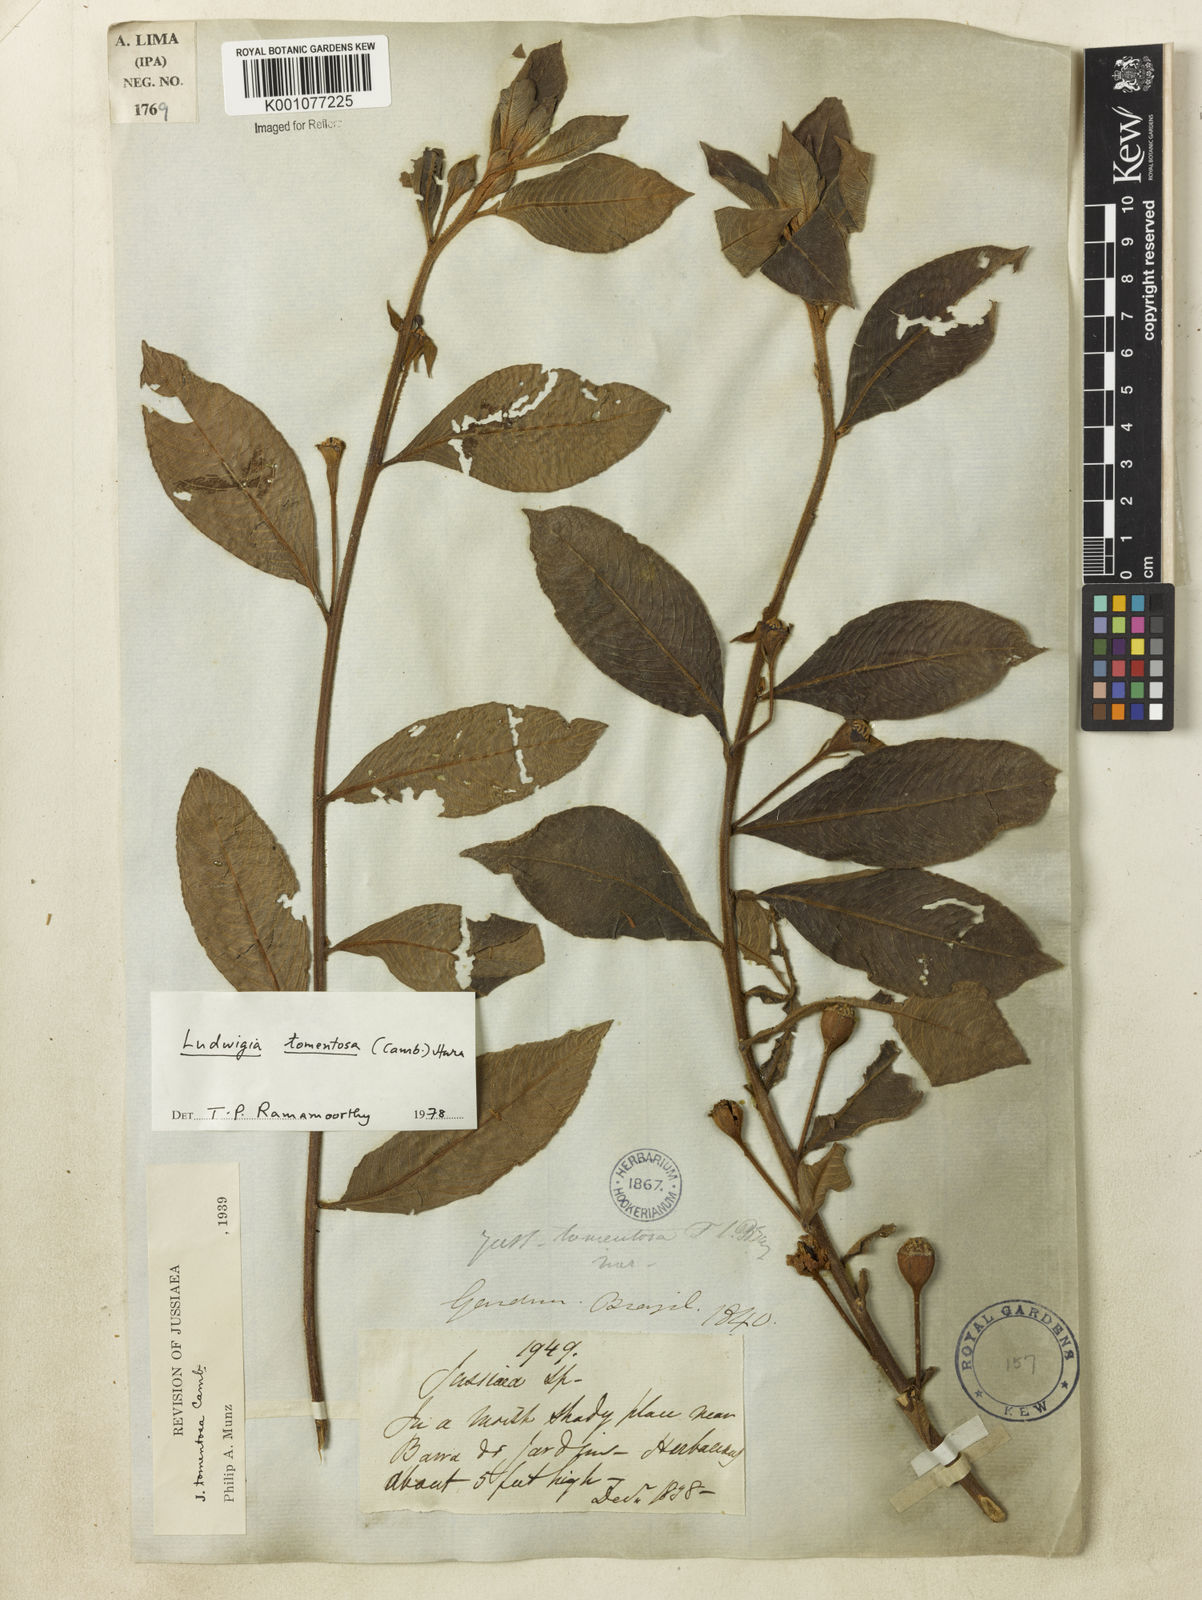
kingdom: Plantae
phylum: Tracheophyta
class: Magnoliopsida
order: Myrtales
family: Onagraceae
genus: Ludwigia
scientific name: Ludwigia tomentosa
